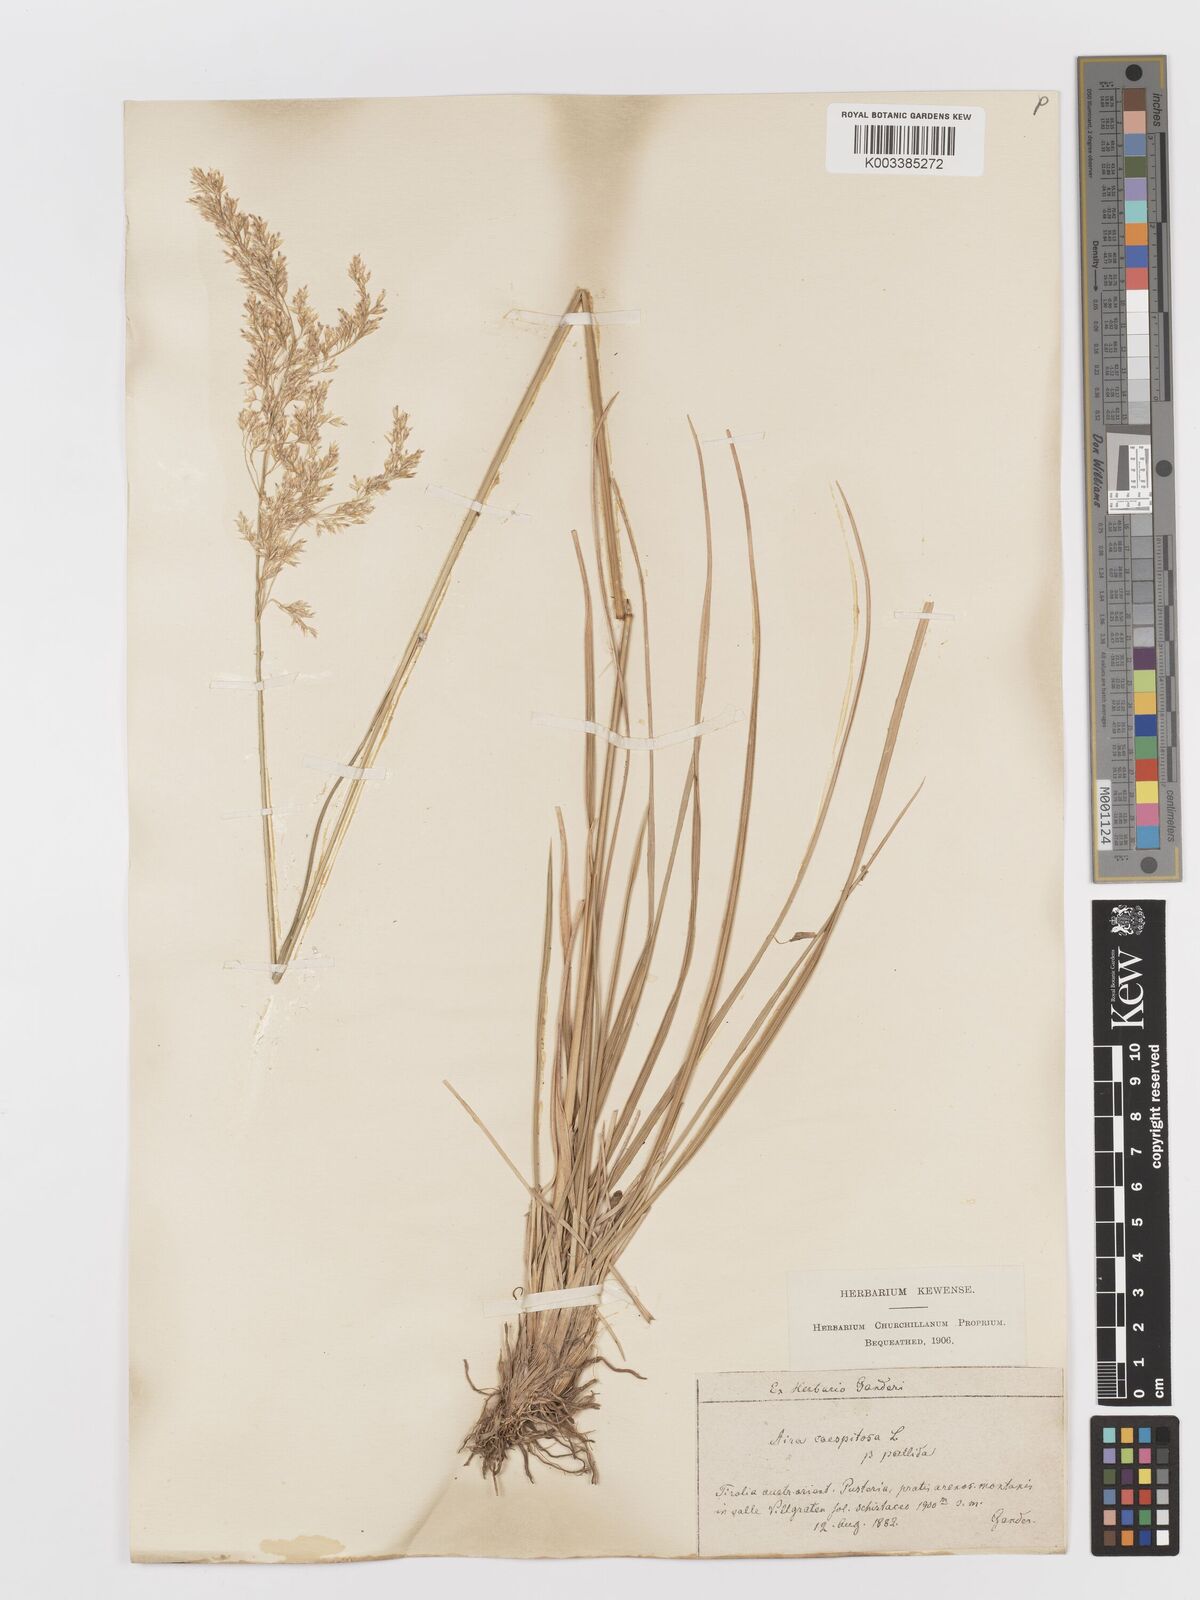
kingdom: Plantae
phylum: Tracheophyta
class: Liliopsida
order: Poales
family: Poaceae
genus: Deschampsia
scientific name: Deschampsia cespitosa
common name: Tufted hair-grass
